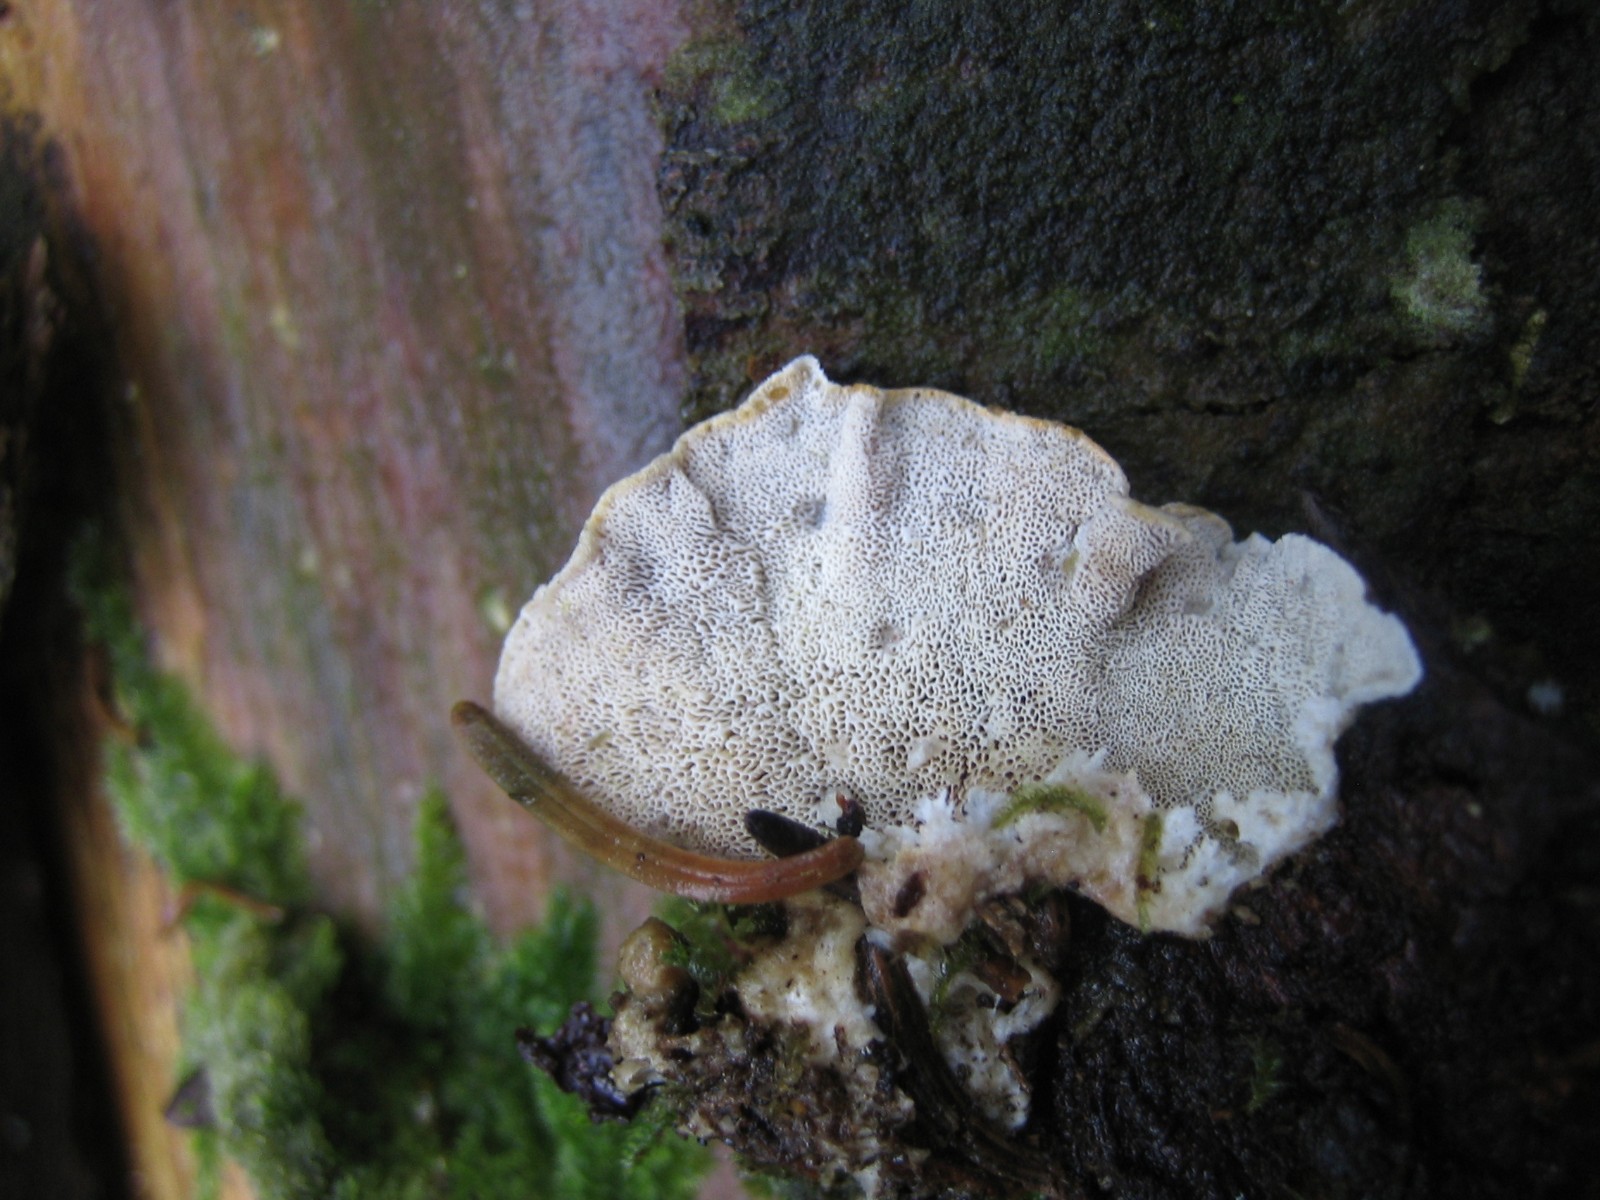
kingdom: Fungi
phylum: Basidiomycota
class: Agaricomycetes
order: Polyporales
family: Incrustoporiaceae
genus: Skeletocutis
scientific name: Skeletocutis carneogrisea
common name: rødgrå krystalporesvamp
